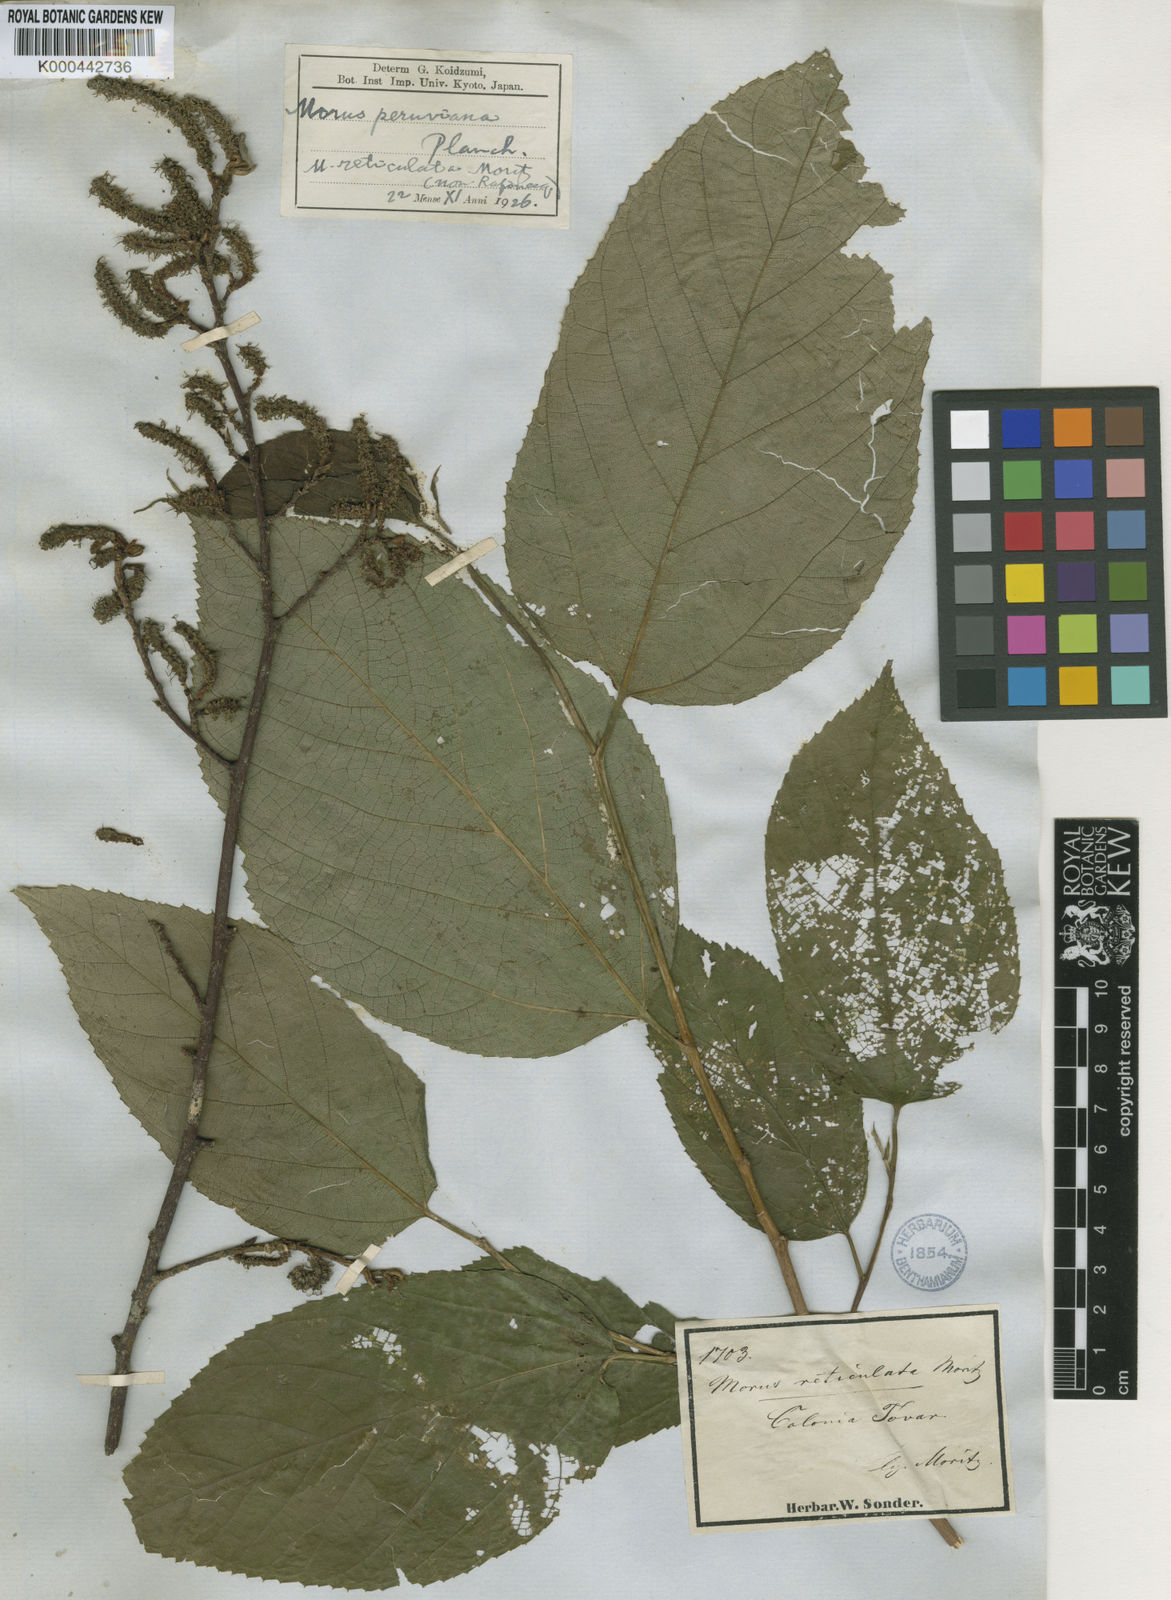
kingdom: Plantae
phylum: Tracheophyta
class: Magnoliopsida
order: Rosales
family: Moraceae
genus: Paratrophis
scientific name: Paratrophis insignis
